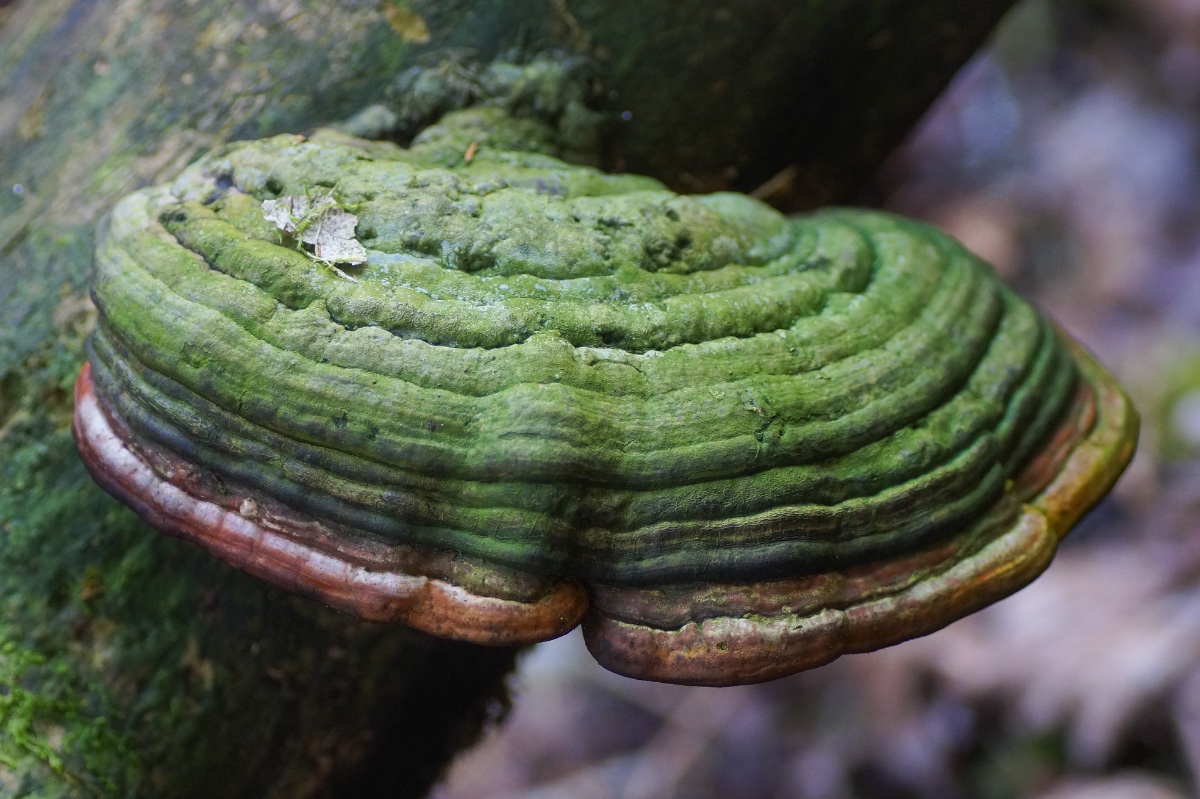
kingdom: Fungi
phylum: Basidiomycota
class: Agaricomycetes
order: Polyporales
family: Fomitopsidaceae
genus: Fomitopsis
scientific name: Fomitopsis pinicola
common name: randbæltet hovporesvamp
